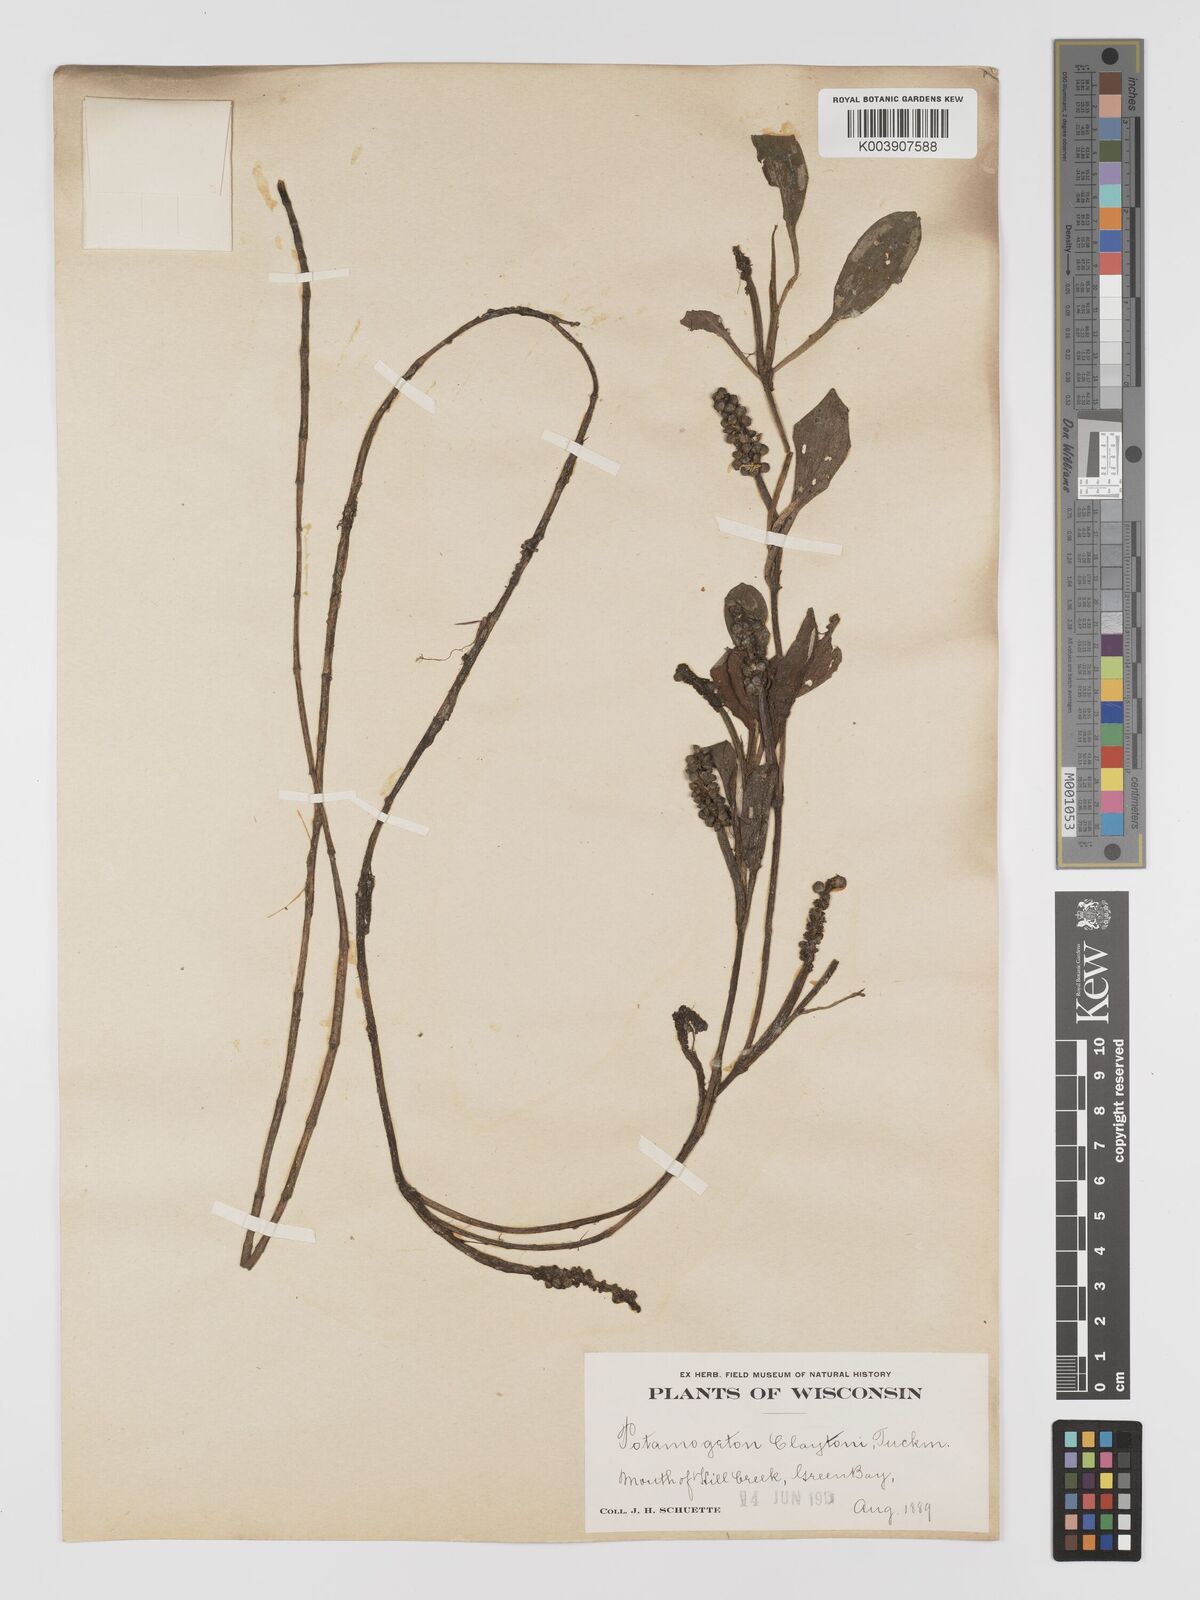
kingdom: Plantae
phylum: Tracheophyta
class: Liliopsida
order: Alismatales
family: Potamogetonaceae
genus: Potamogeton
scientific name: Potamogeton epihydrus
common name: American pondweed
